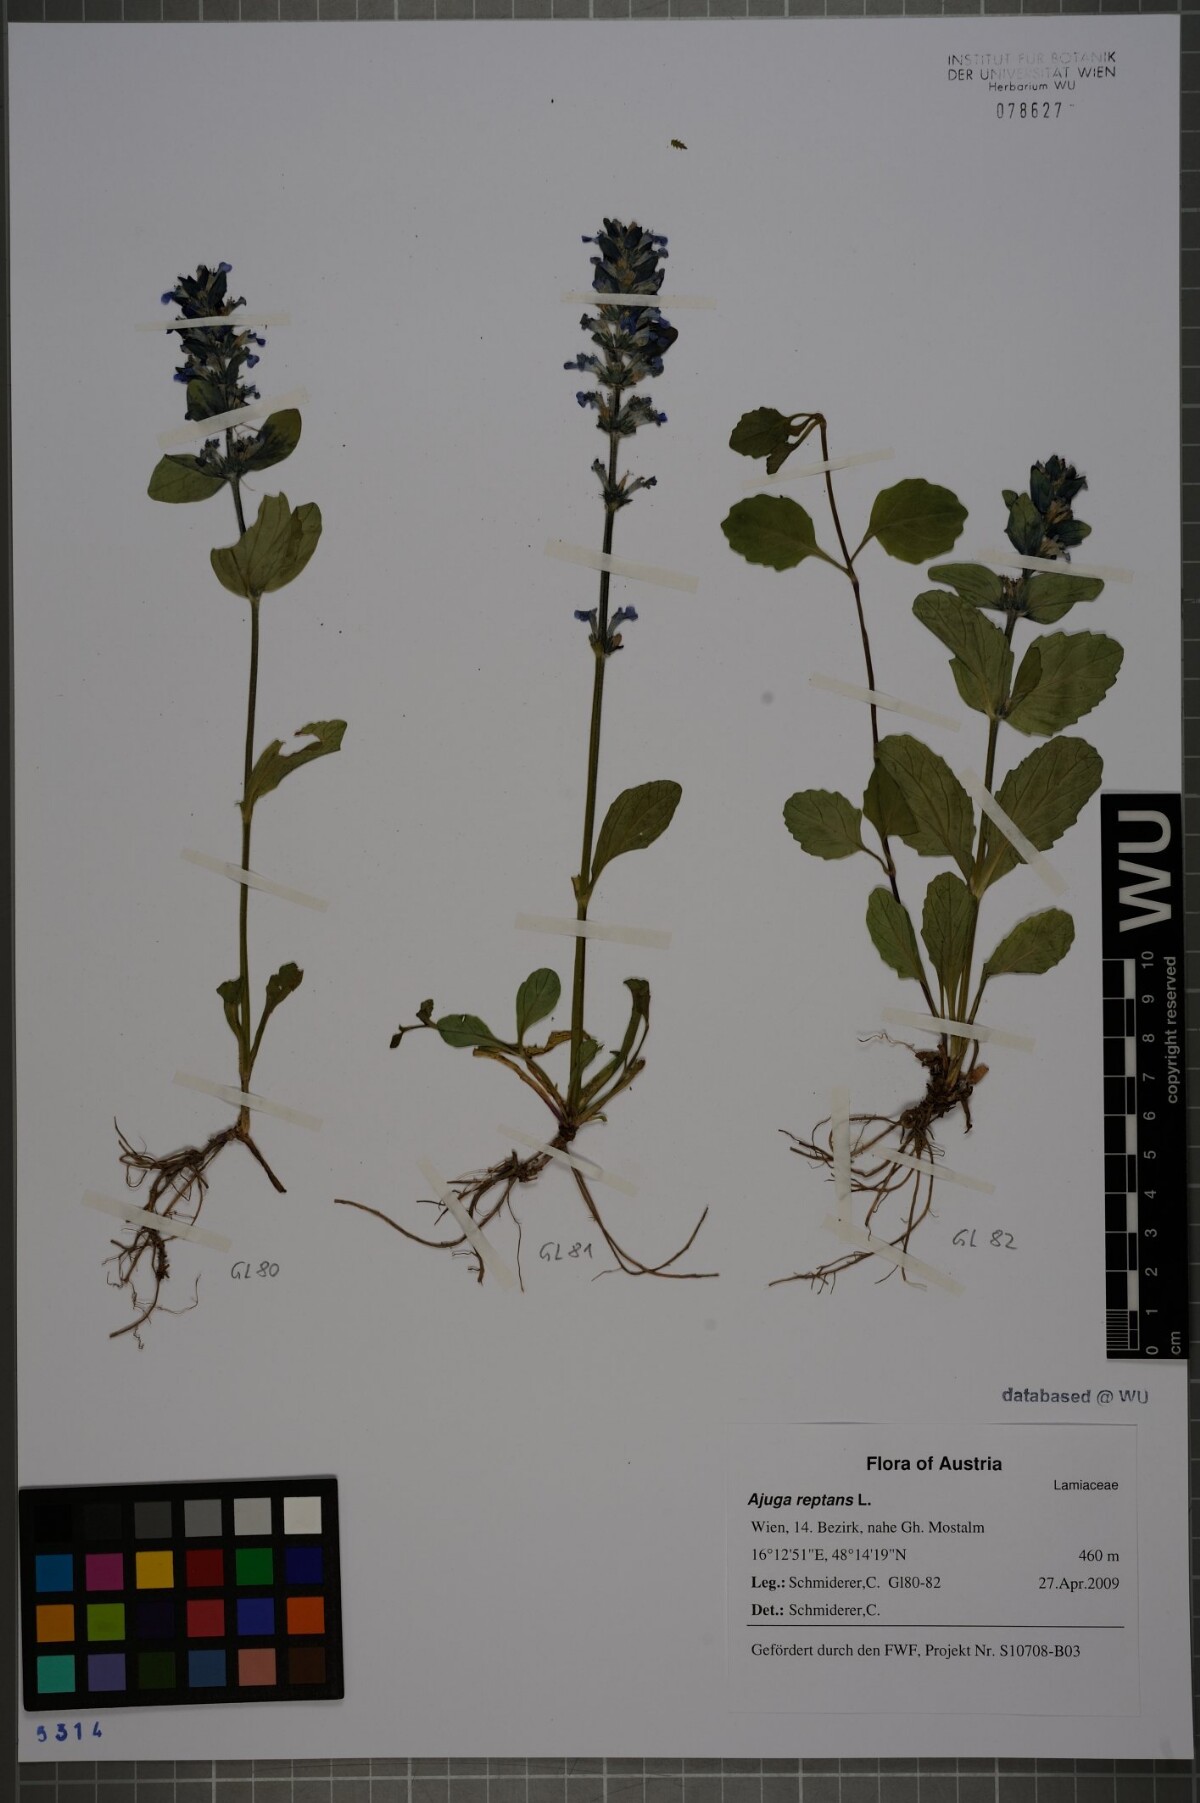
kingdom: Plantae
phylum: Tracheophyta
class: Magnoliopsida
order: Lamiales
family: Lamiaceae
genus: Ajuga
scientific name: Ajuga reptans
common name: Bugle
